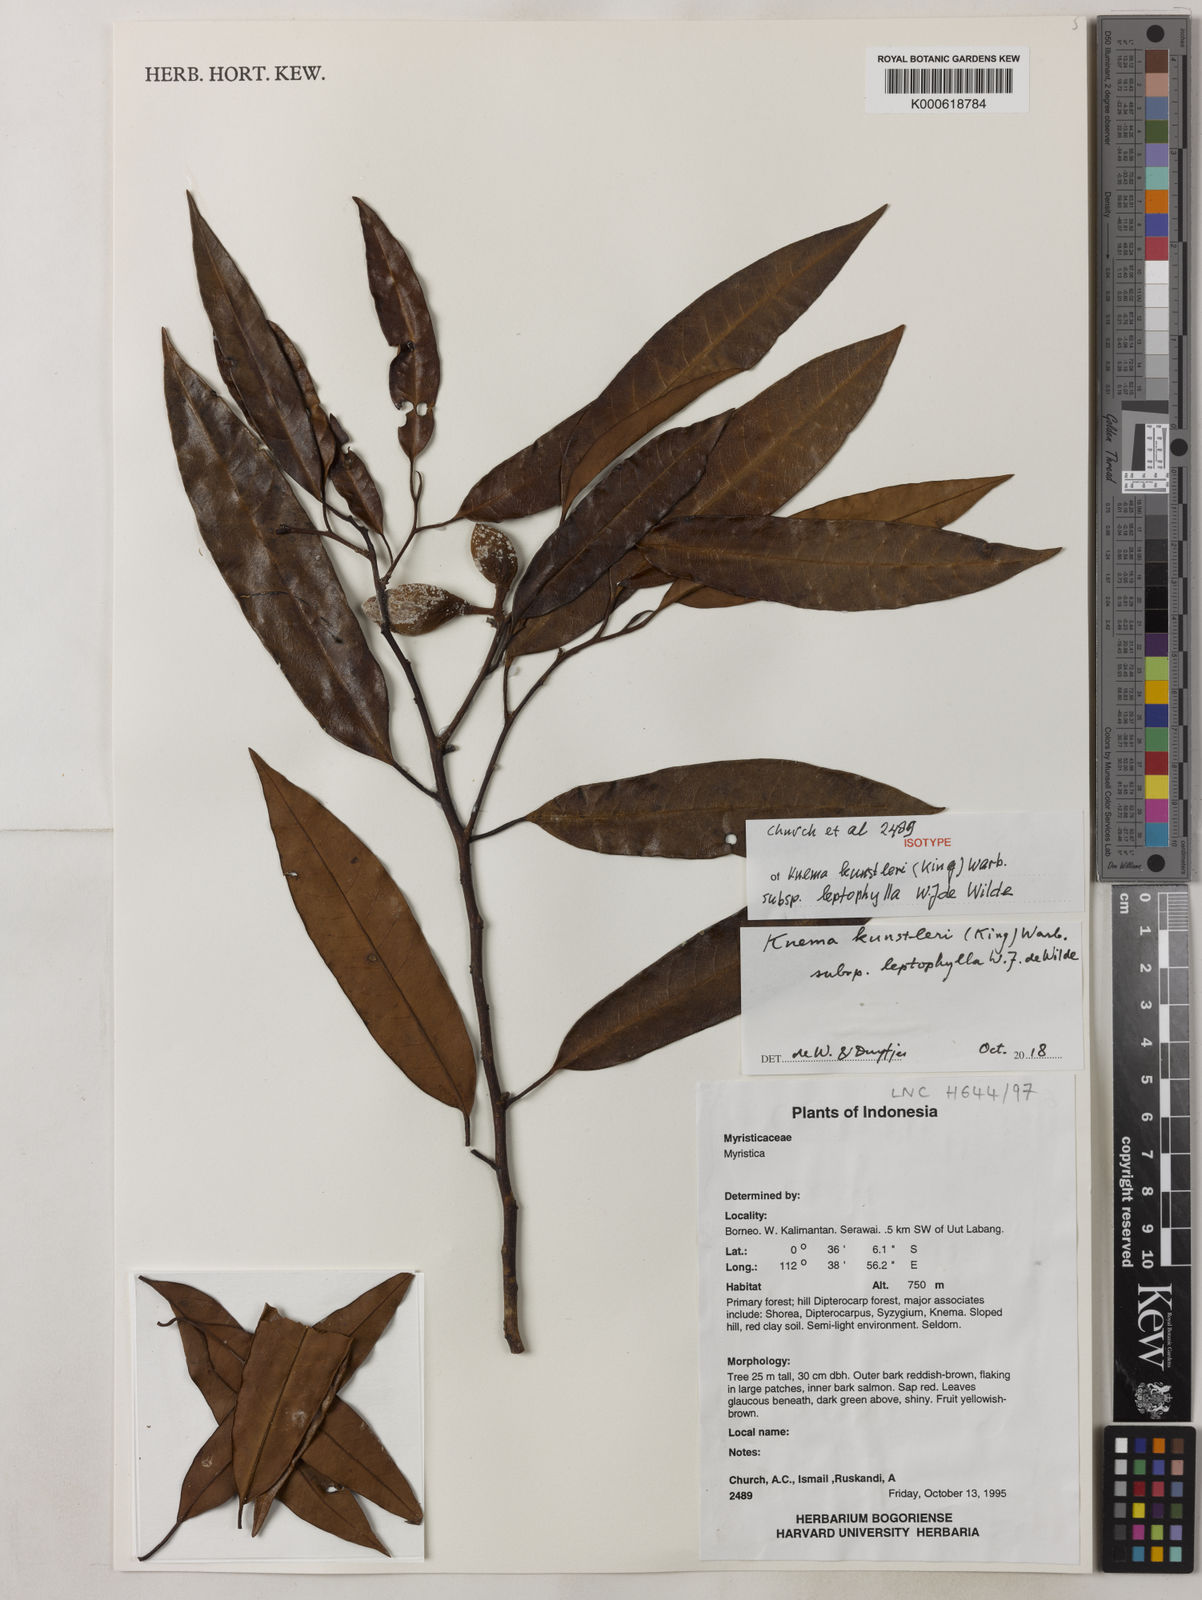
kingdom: Plantae
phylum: Tracheophyta
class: Magnoliopsida
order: Magnoliales
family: Myristicaceae
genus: Knema
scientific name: Knema kunstleri
